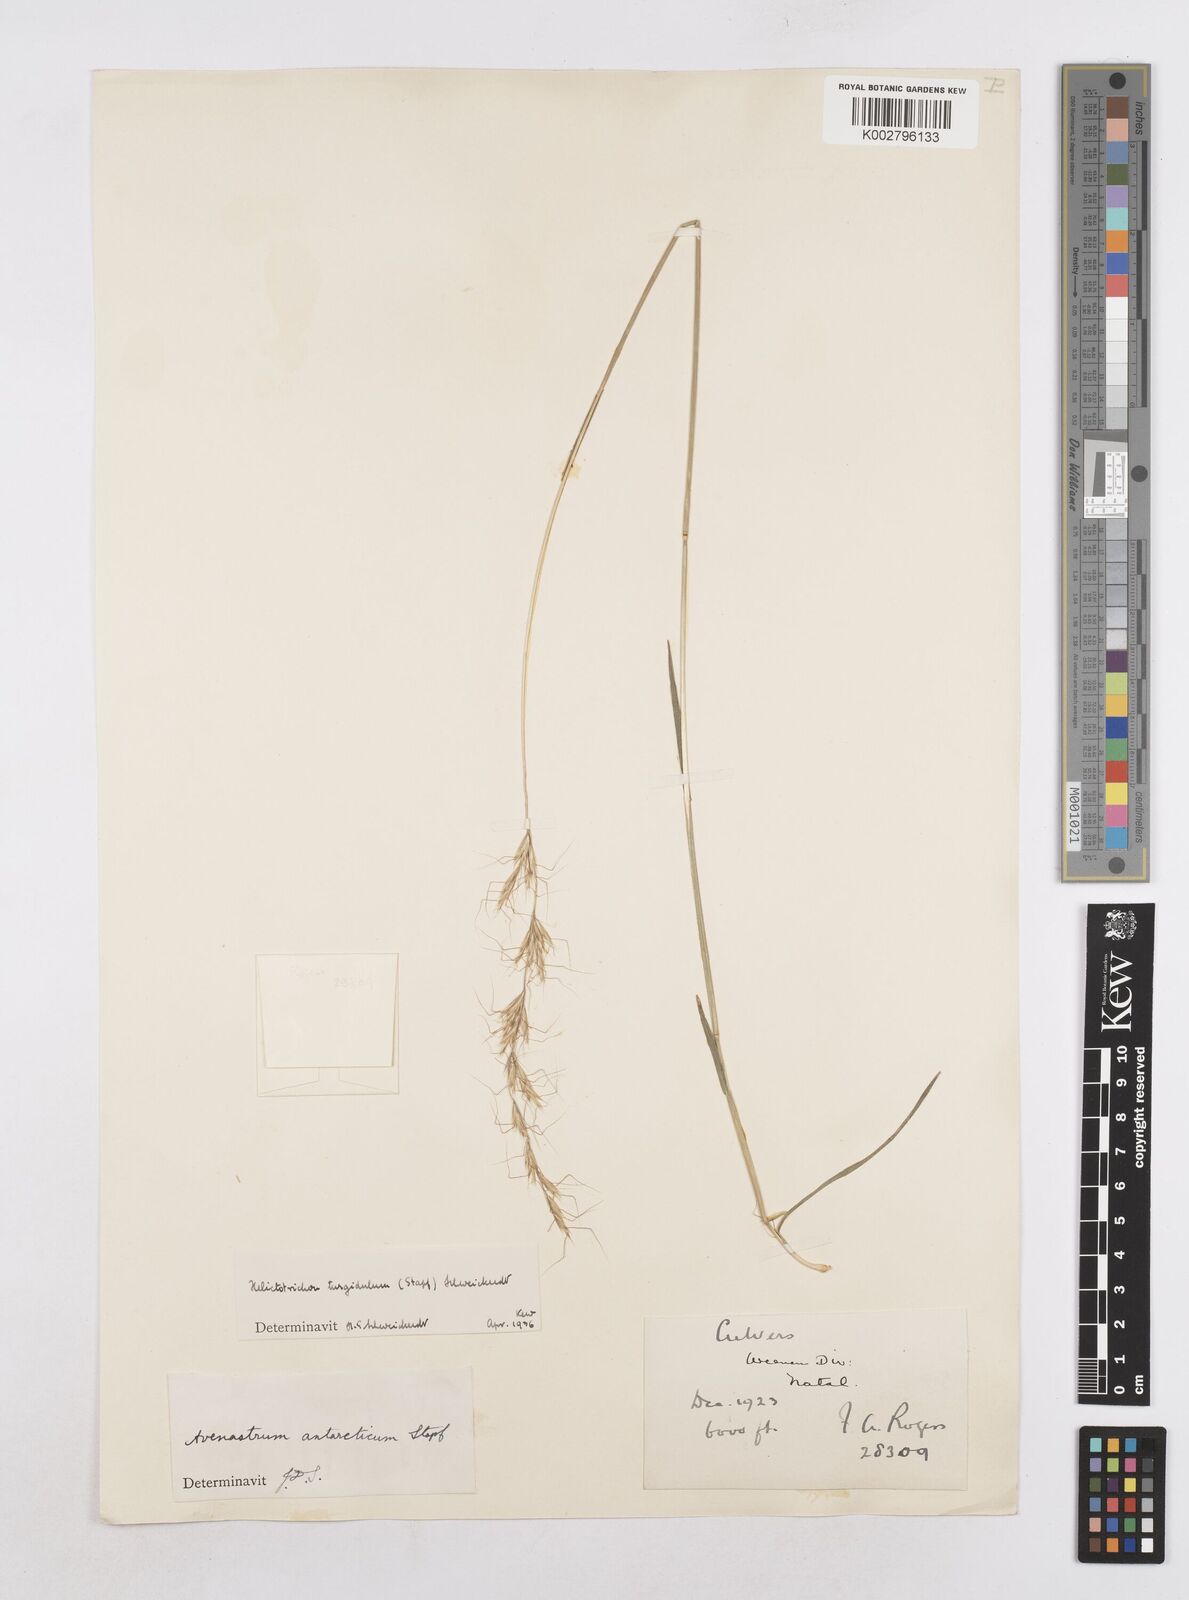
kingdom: Plantae
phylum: Tracheophyta
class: Liliopsida
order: Poales
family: Poaceae
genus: Trisetopsis
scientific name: Trisetopsis imberbis
